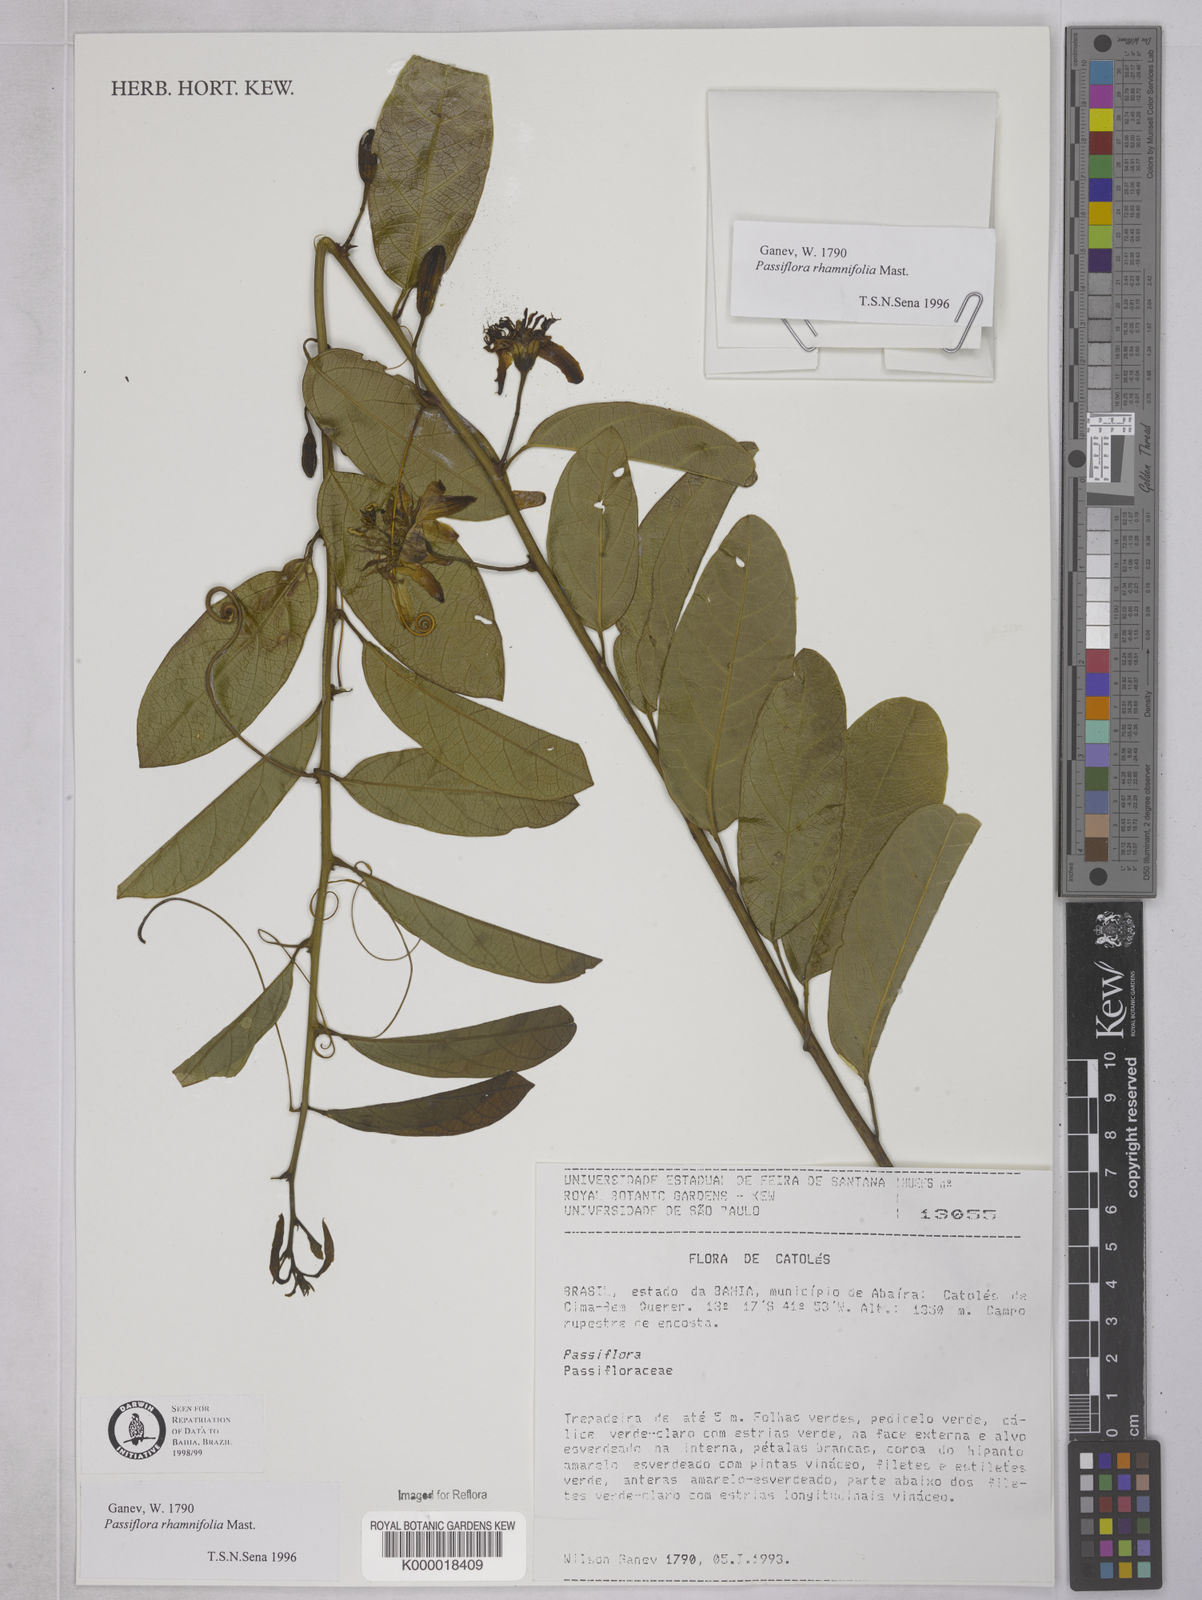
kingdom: Plantae
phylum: Tracheophyta
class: Magnoliopsida
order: Malpighiales
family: Passifloraceae
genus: Passiflora
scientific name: Passiflora rhamnifolia
